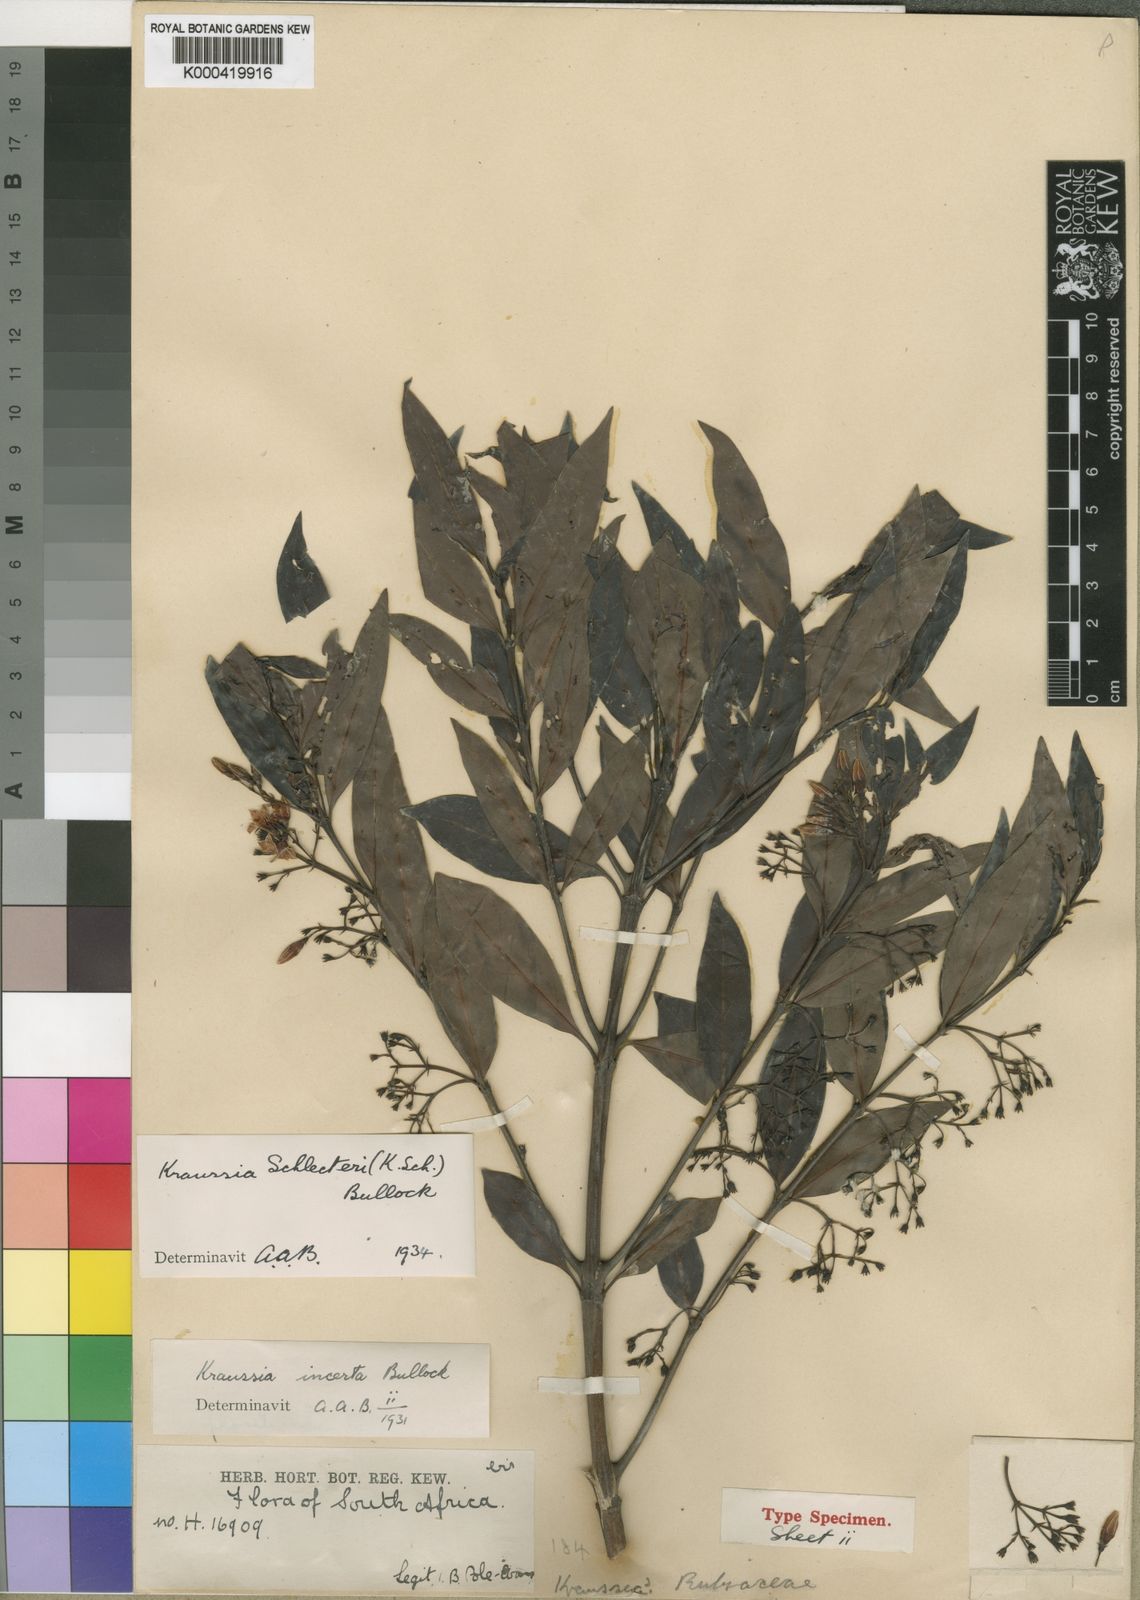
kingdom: Plantae
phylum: Tracheophyta
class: Magnoliopsida
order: Gentianales
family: Rubiaceae
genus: Kraussia
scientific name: Kraussia floribunda
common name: Rhino-coffee
